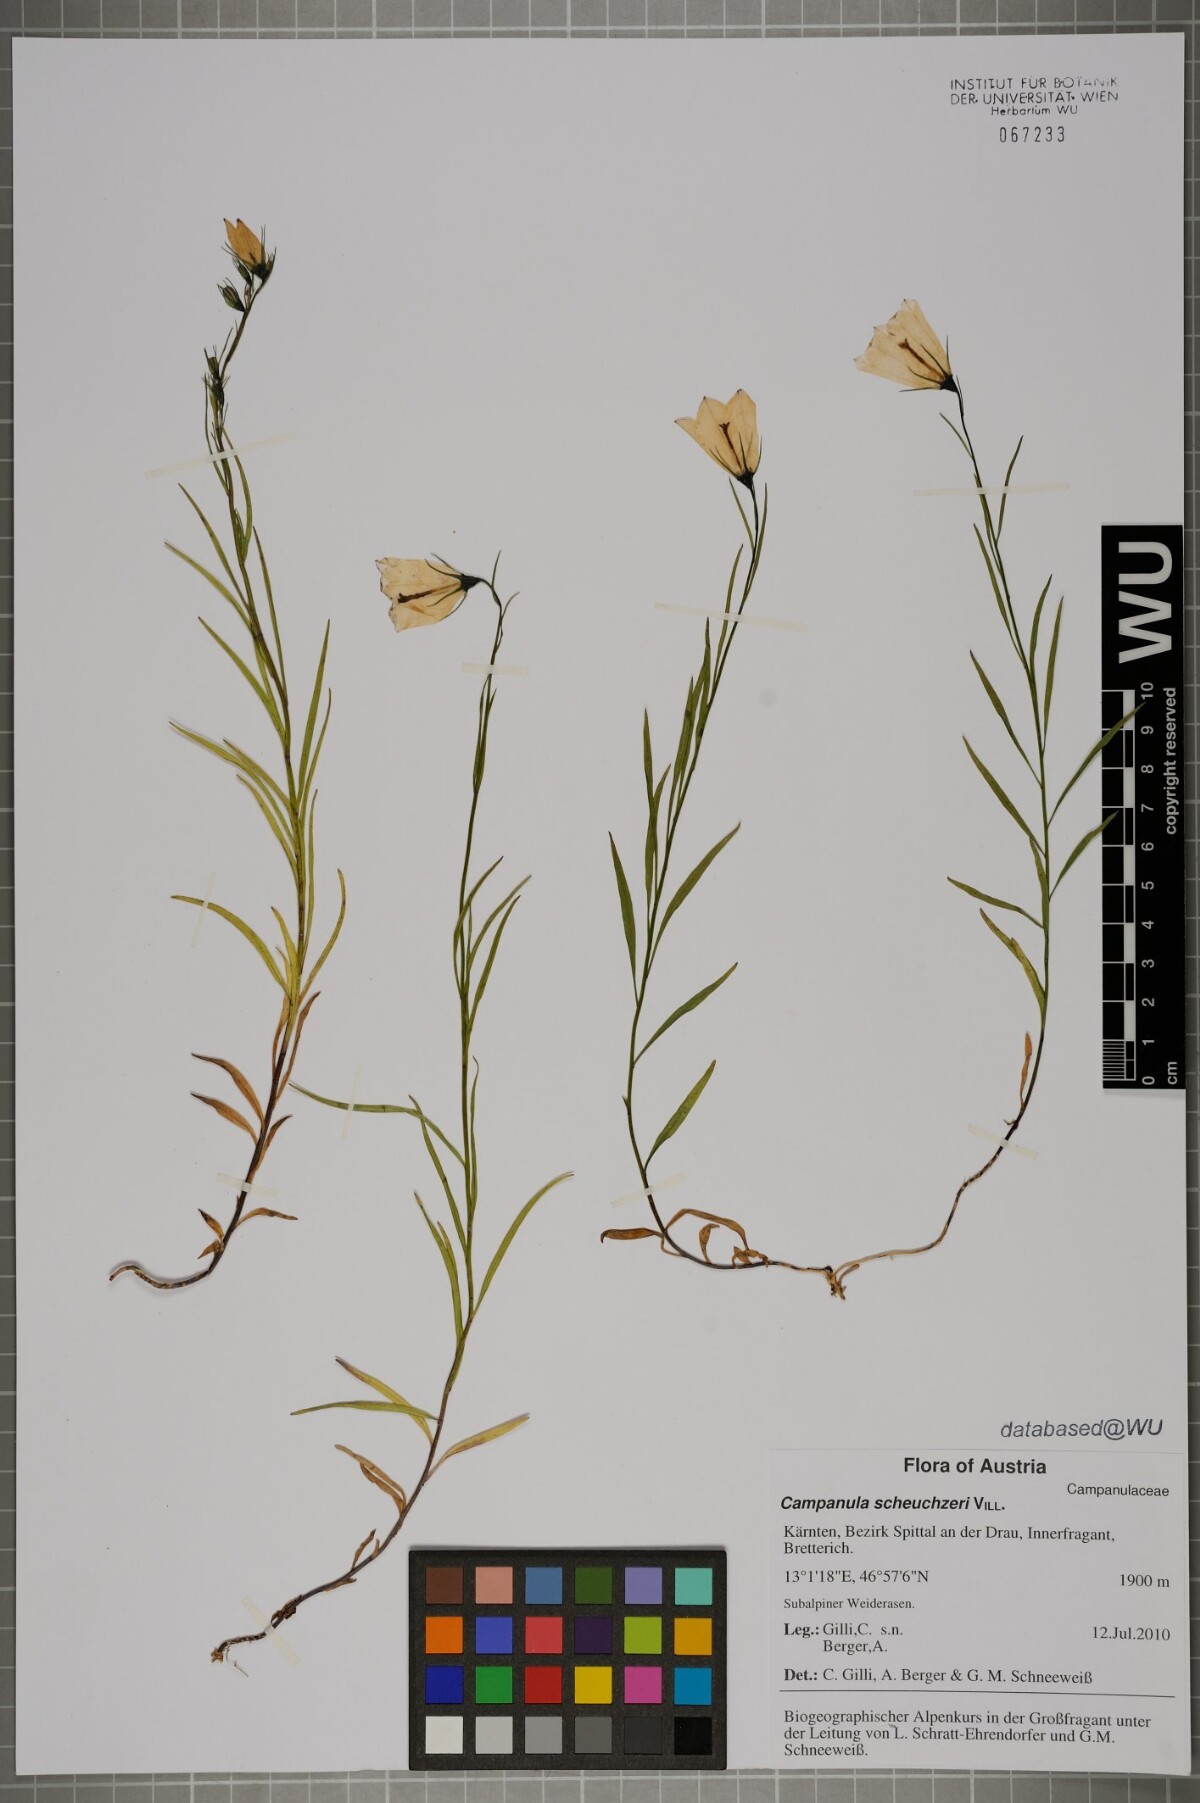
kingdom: Plantae
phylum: Tracheophyta
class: Magnoliopsida
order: Asterales
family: Campanulaceae
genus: Campanula
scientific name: Campanula scheuchzeri
